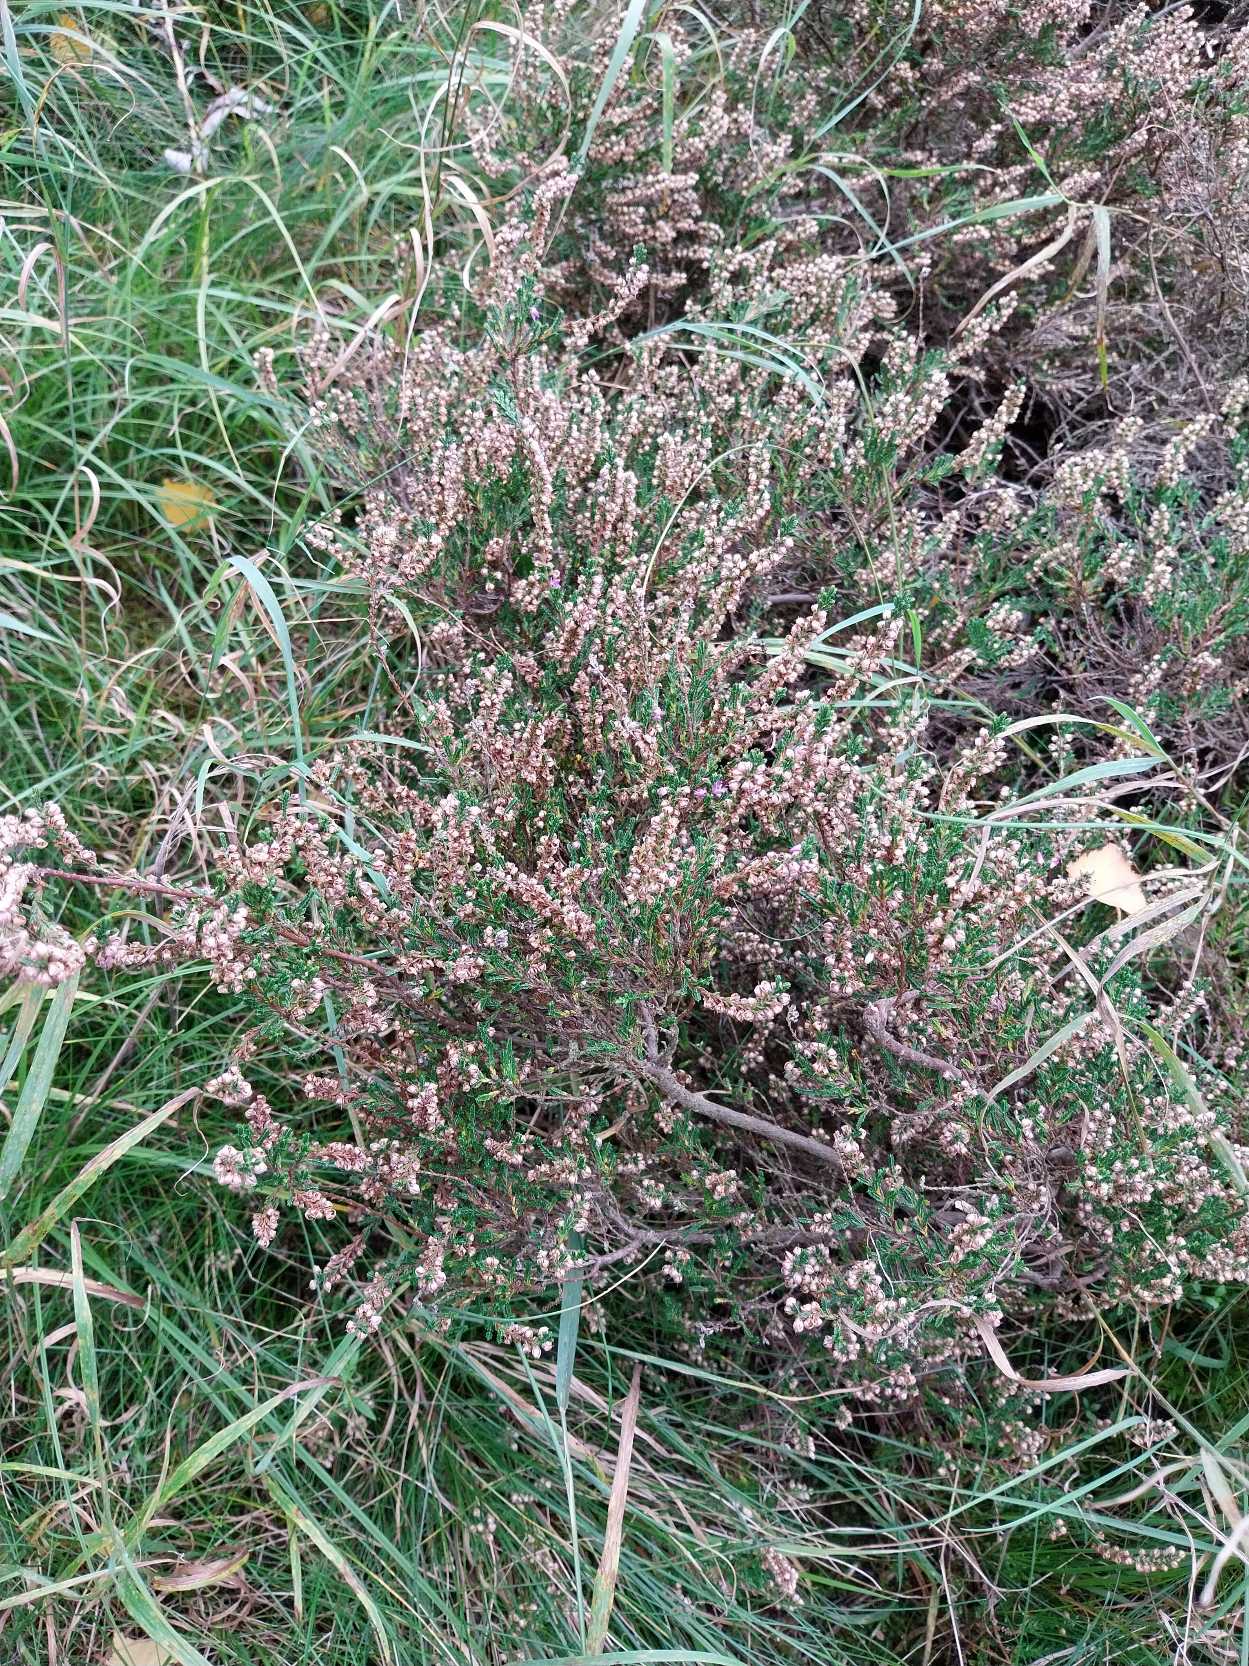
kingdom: Plantae
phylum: Tracheophyta
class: Magnoliopsida
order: Ericales
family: Ericaceae
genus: Calluna
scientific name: Calluna vulgaris
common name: Hedelyng
